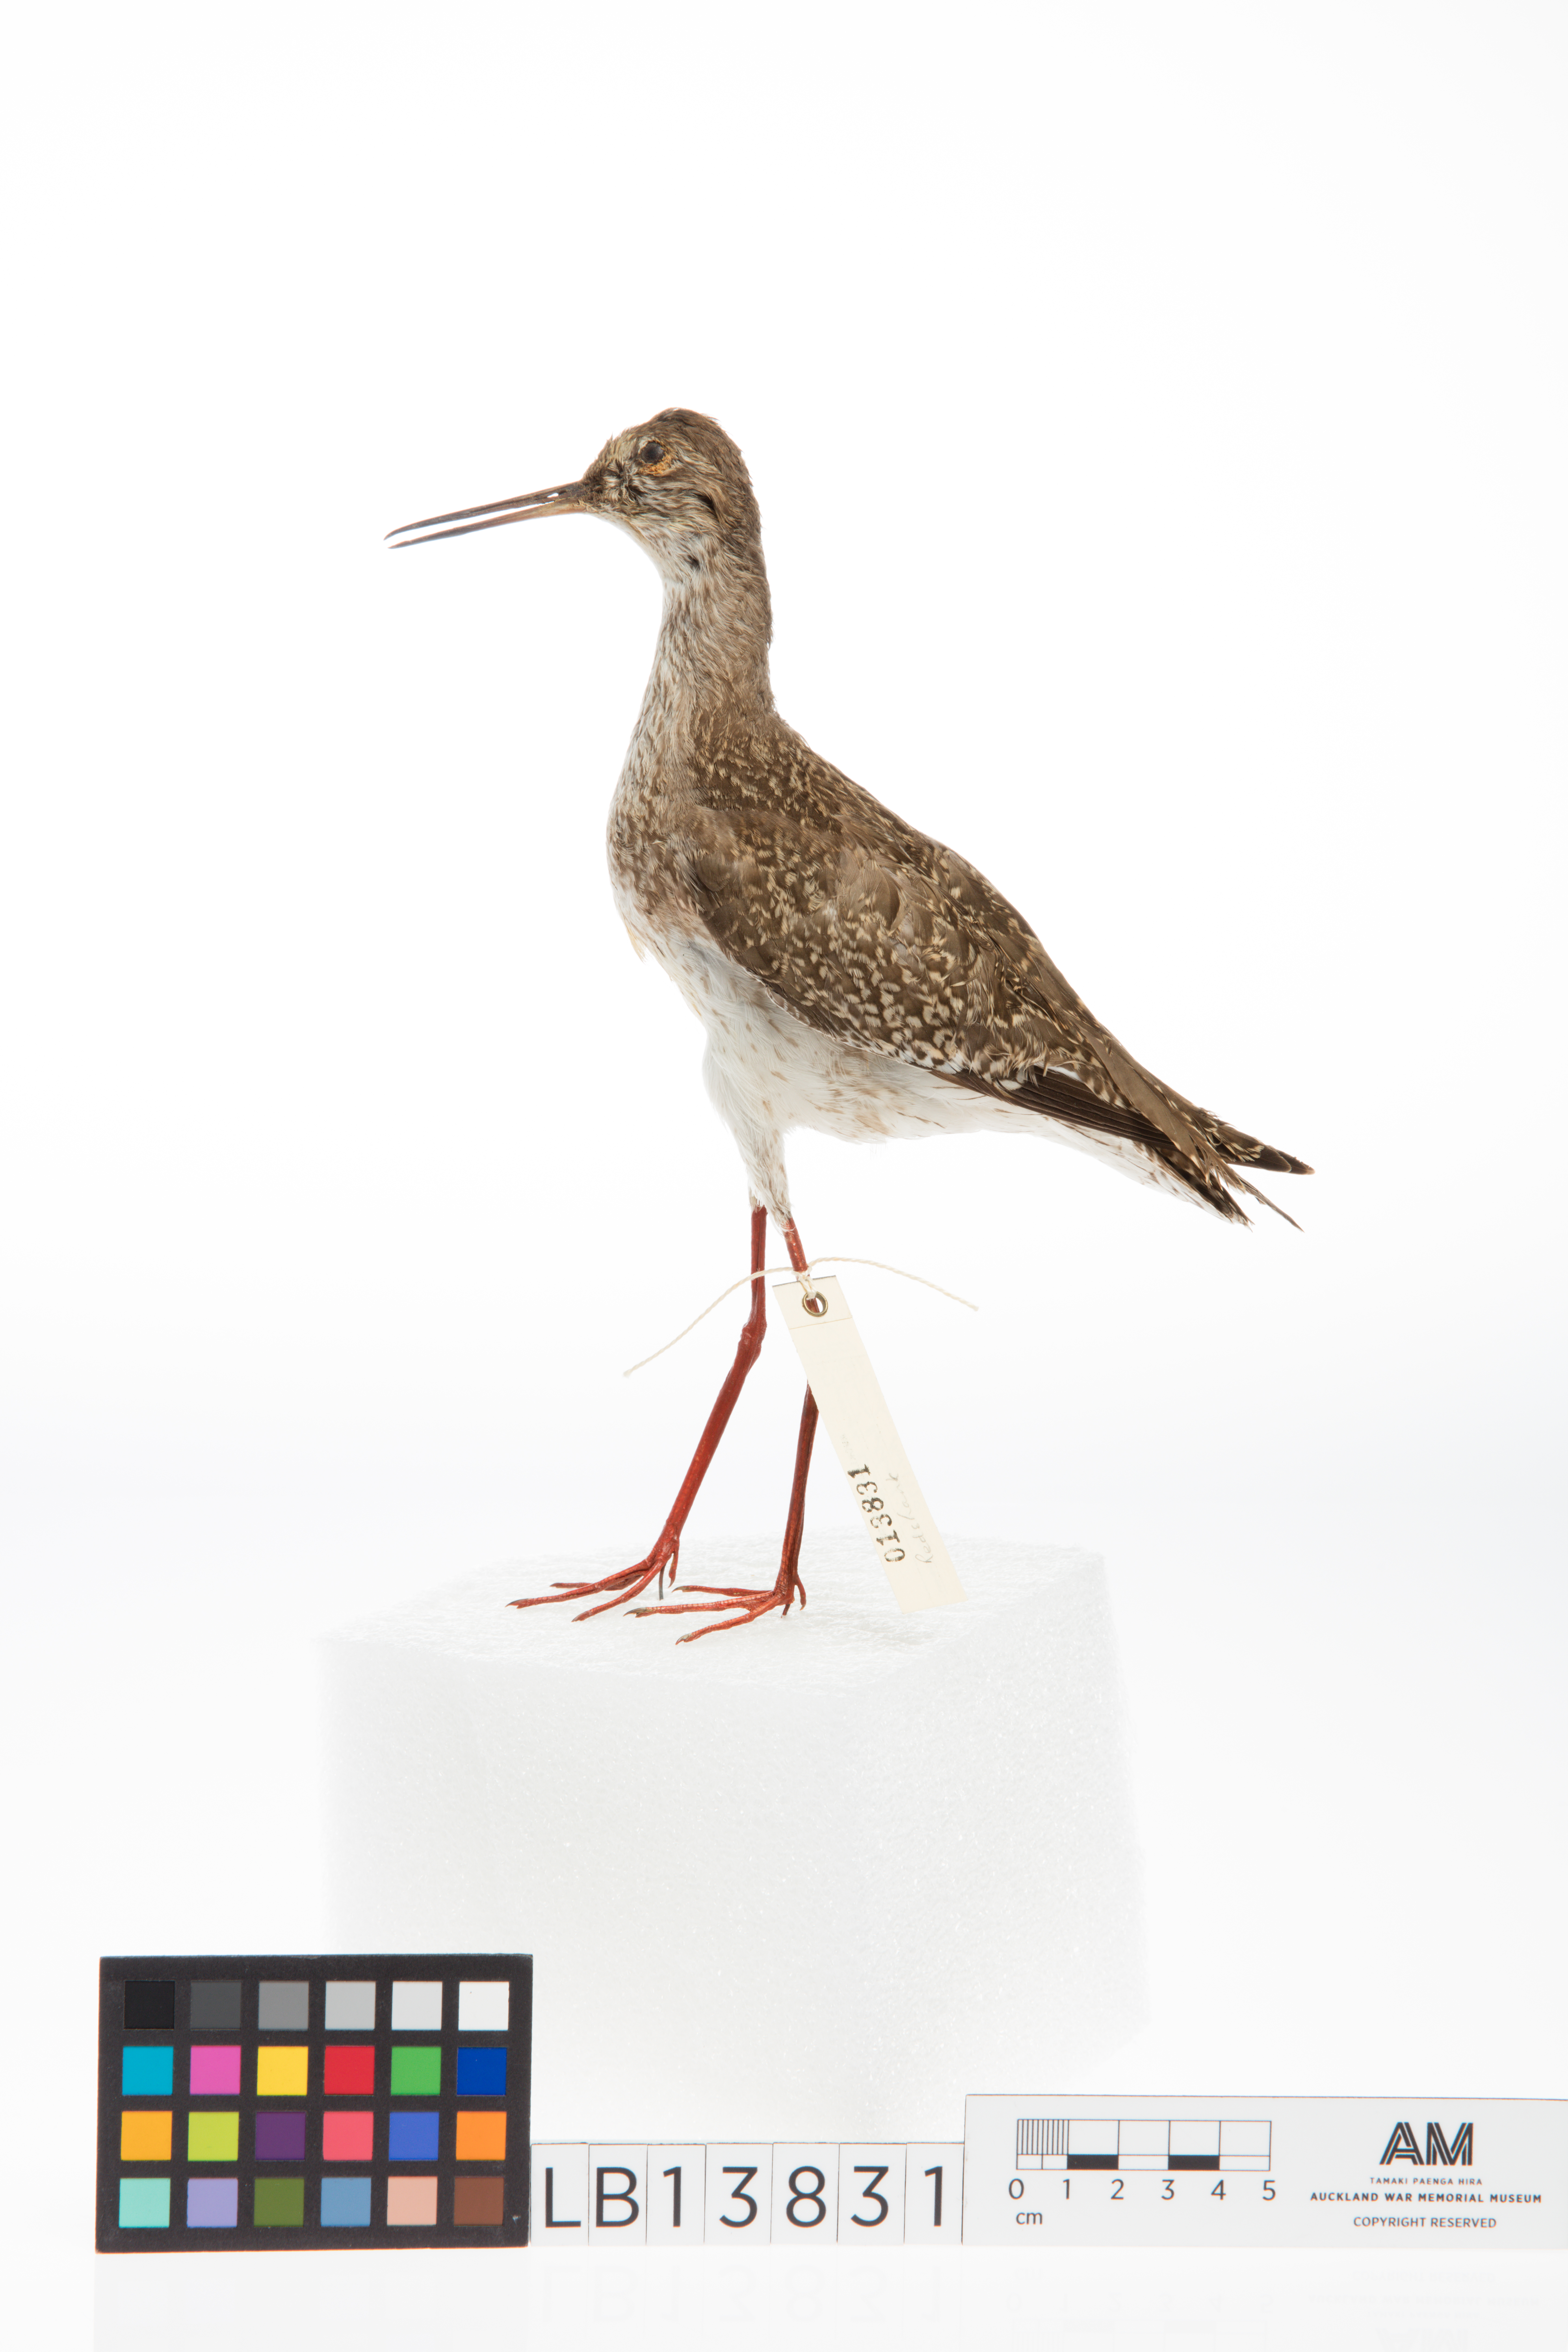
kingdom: Animalia
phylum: Chordata
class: Aves
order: Charadriiformes
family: Scolopacidae
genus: Tringa
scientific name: Tringa totanus
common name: Common redshank
